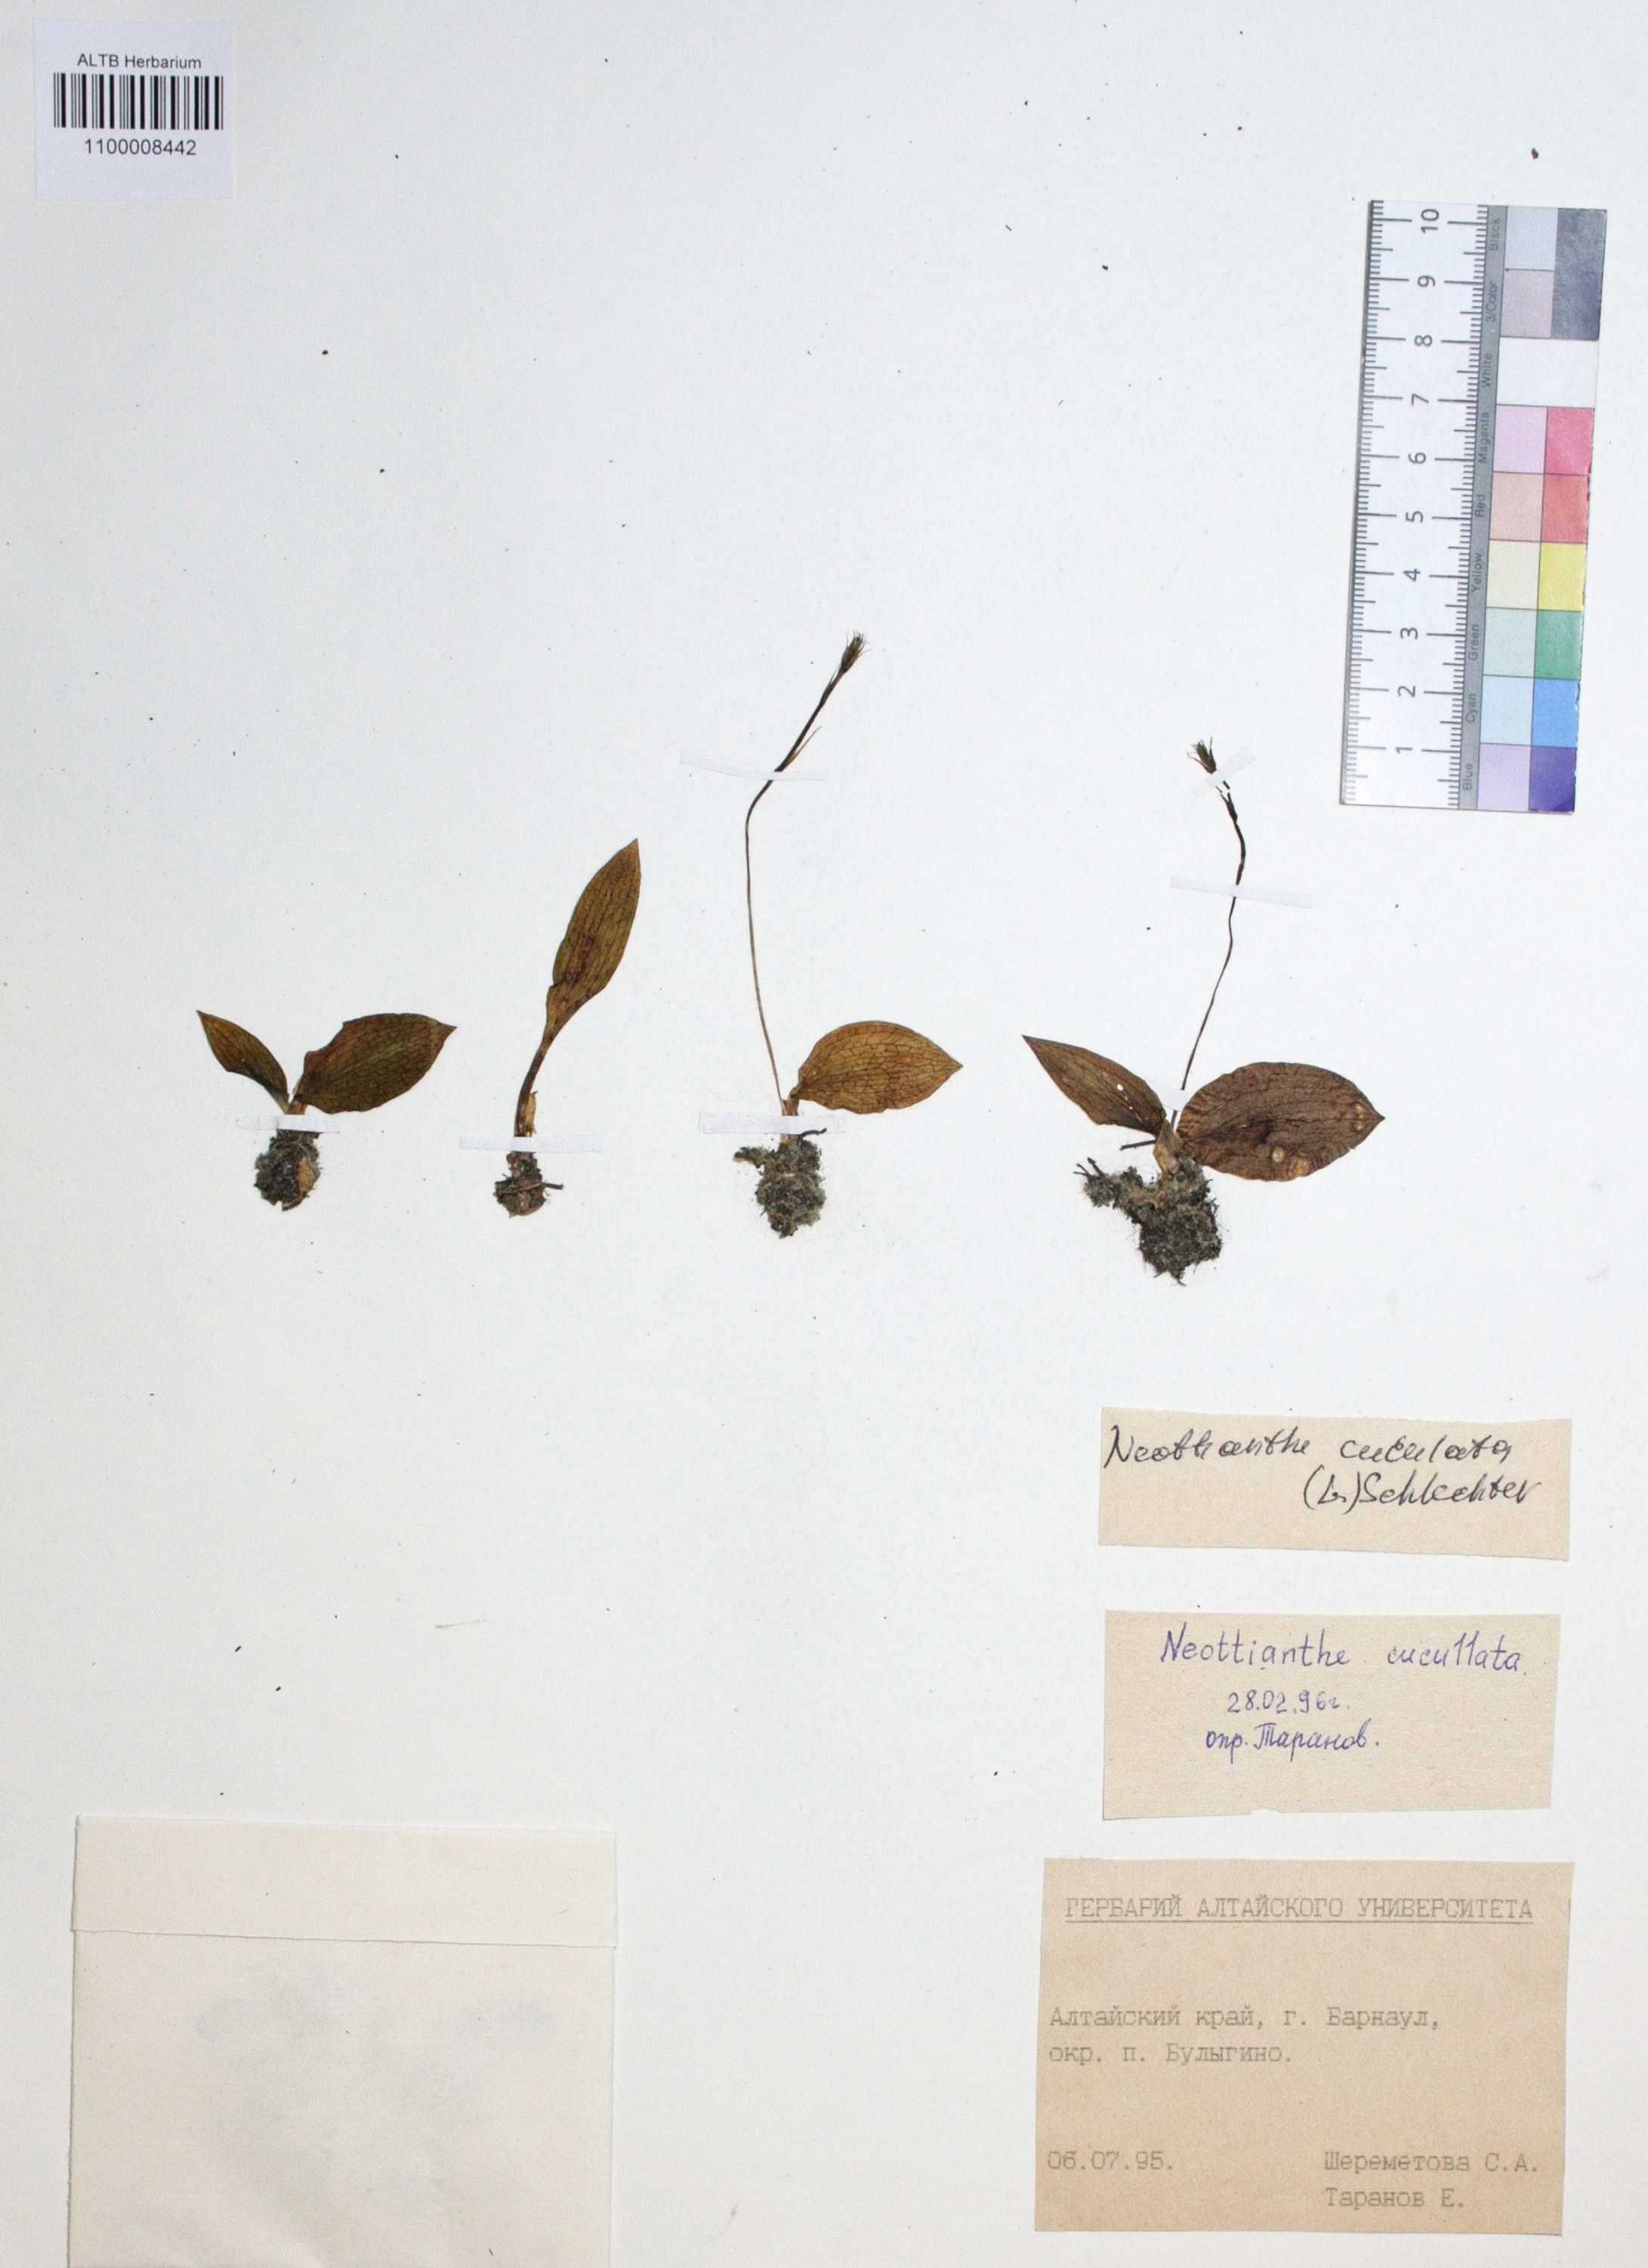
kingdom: Plantae
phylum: Tracheophyta
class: Liliopsida
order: Asparagales
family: Orchidaceae
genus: Hemipilia
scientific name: Hemipilia cucullata
